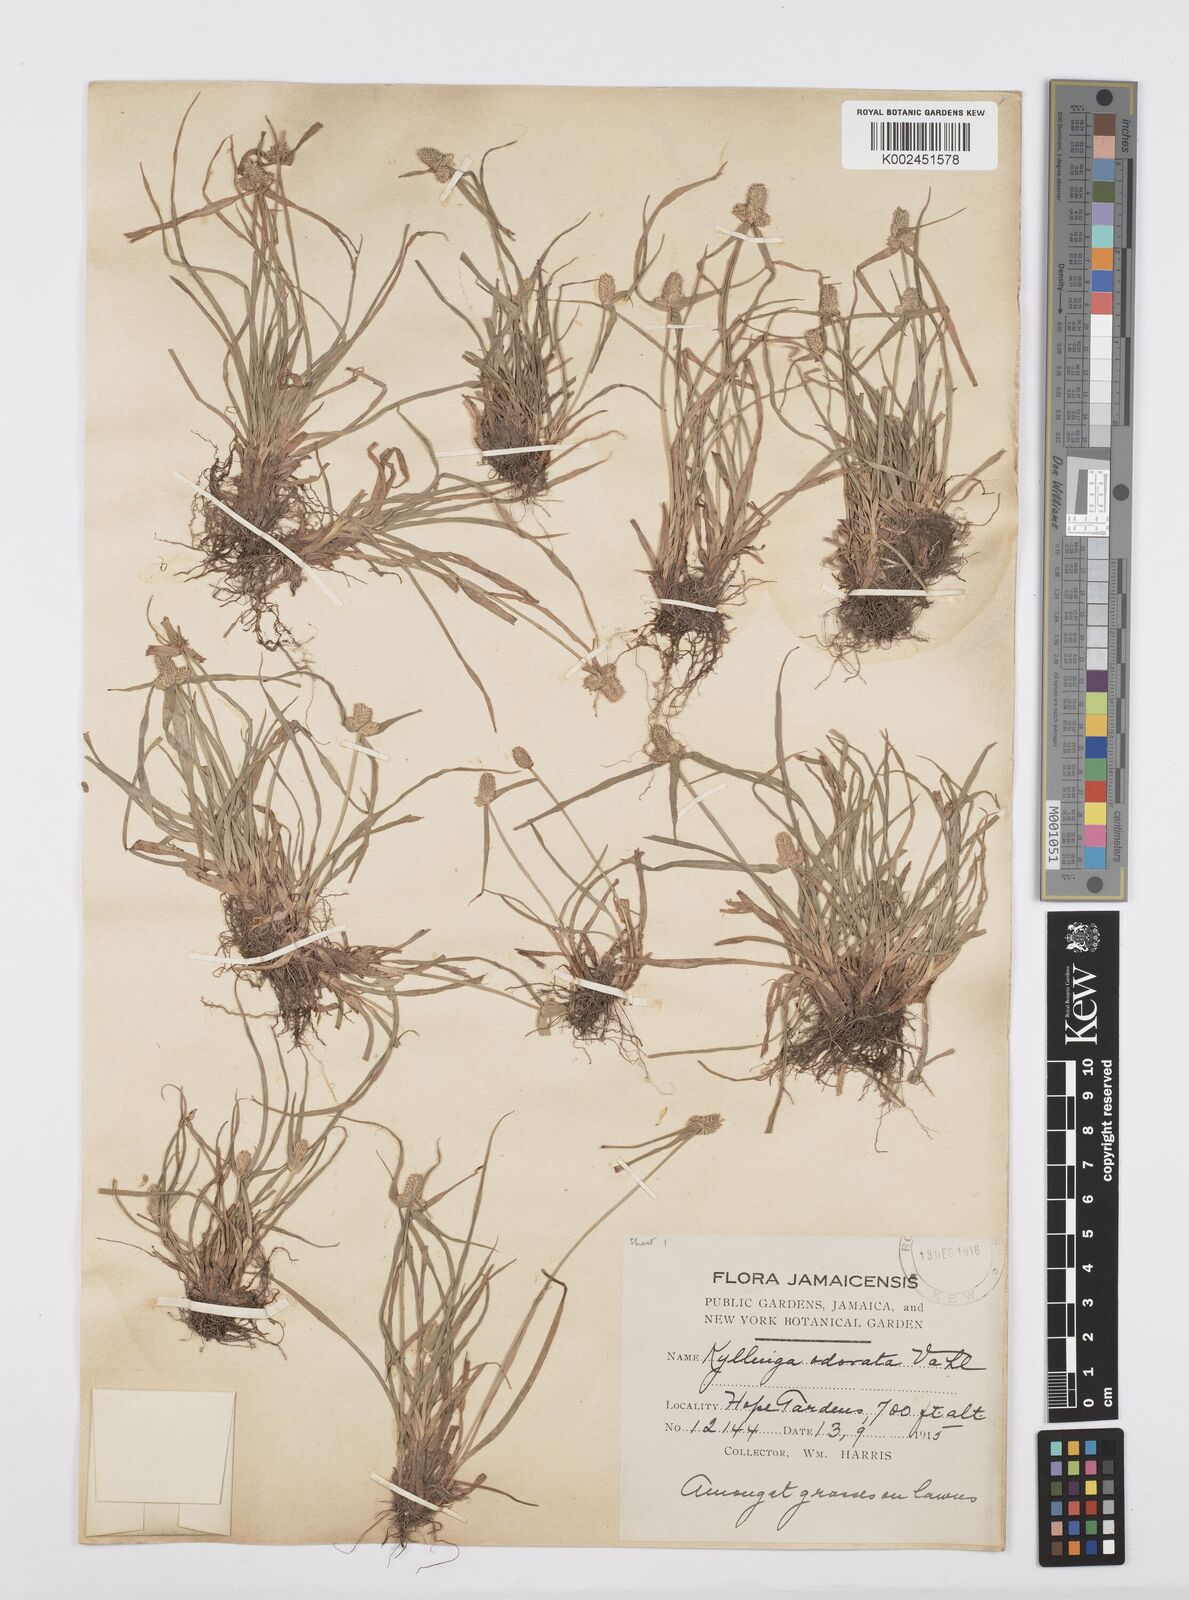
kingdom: Plantae
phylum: Tracheophyta
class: Liliopsida
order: Poales
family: Cyperaceae
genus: Cyperus
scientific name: Cyperus
